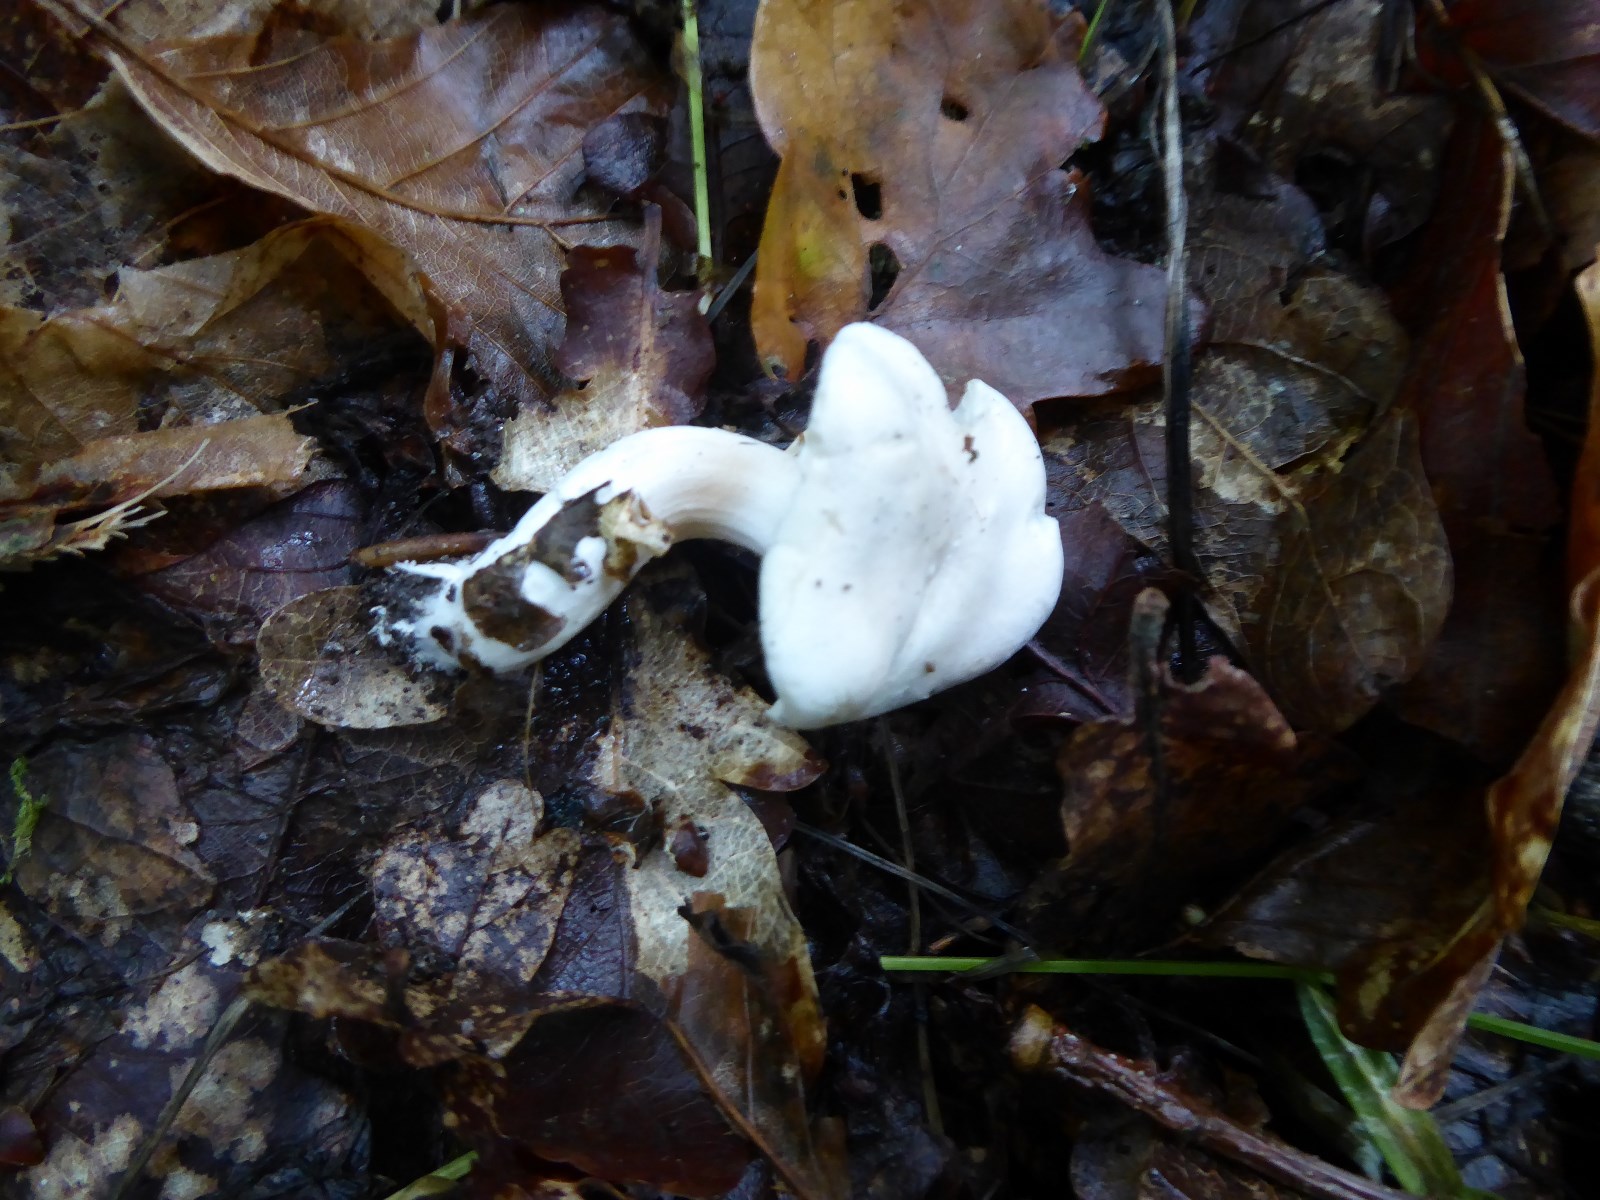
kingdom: Fungi
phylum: Basidiomycota
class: Agaricomycetes
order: Agaricales
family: Entolomataceae
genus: Clitopilus
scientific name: Clitopilus prunulus
